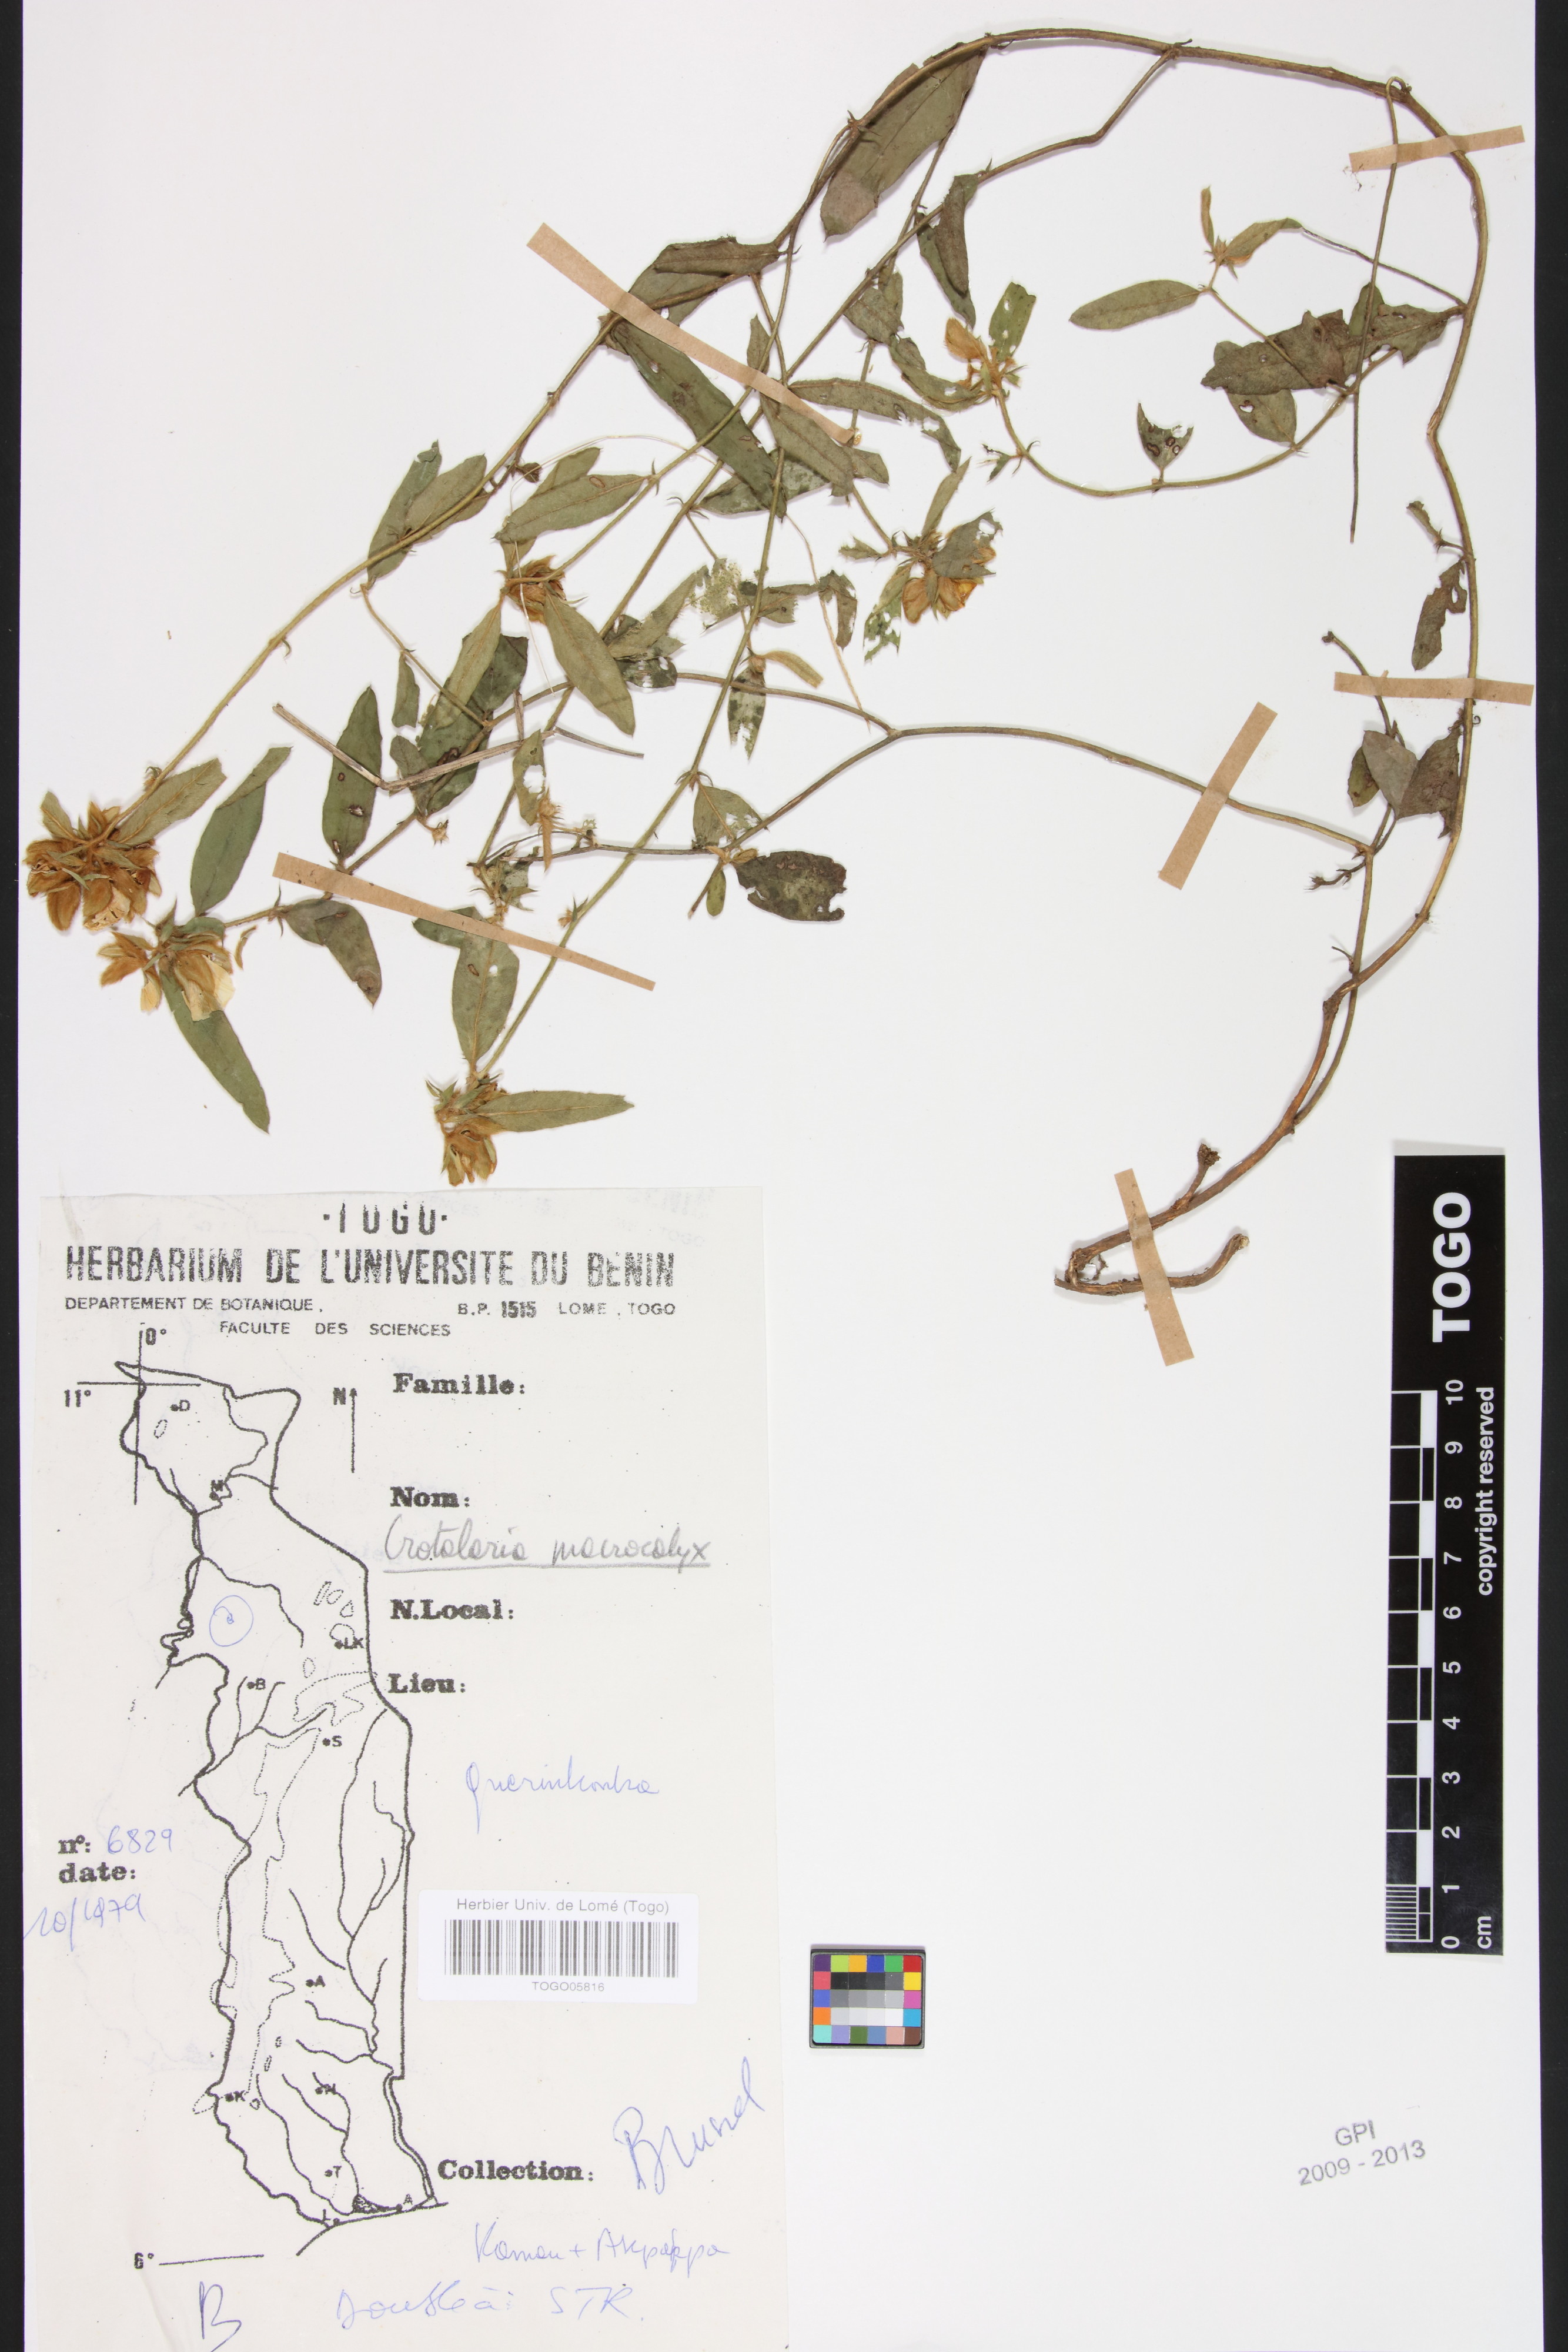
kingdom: Plantae
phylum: Tracheophyta
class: Magnoliopsida
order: Fabales
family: Fabaceae
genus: Crotalaria
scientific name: Crotalaria macrocalyx
